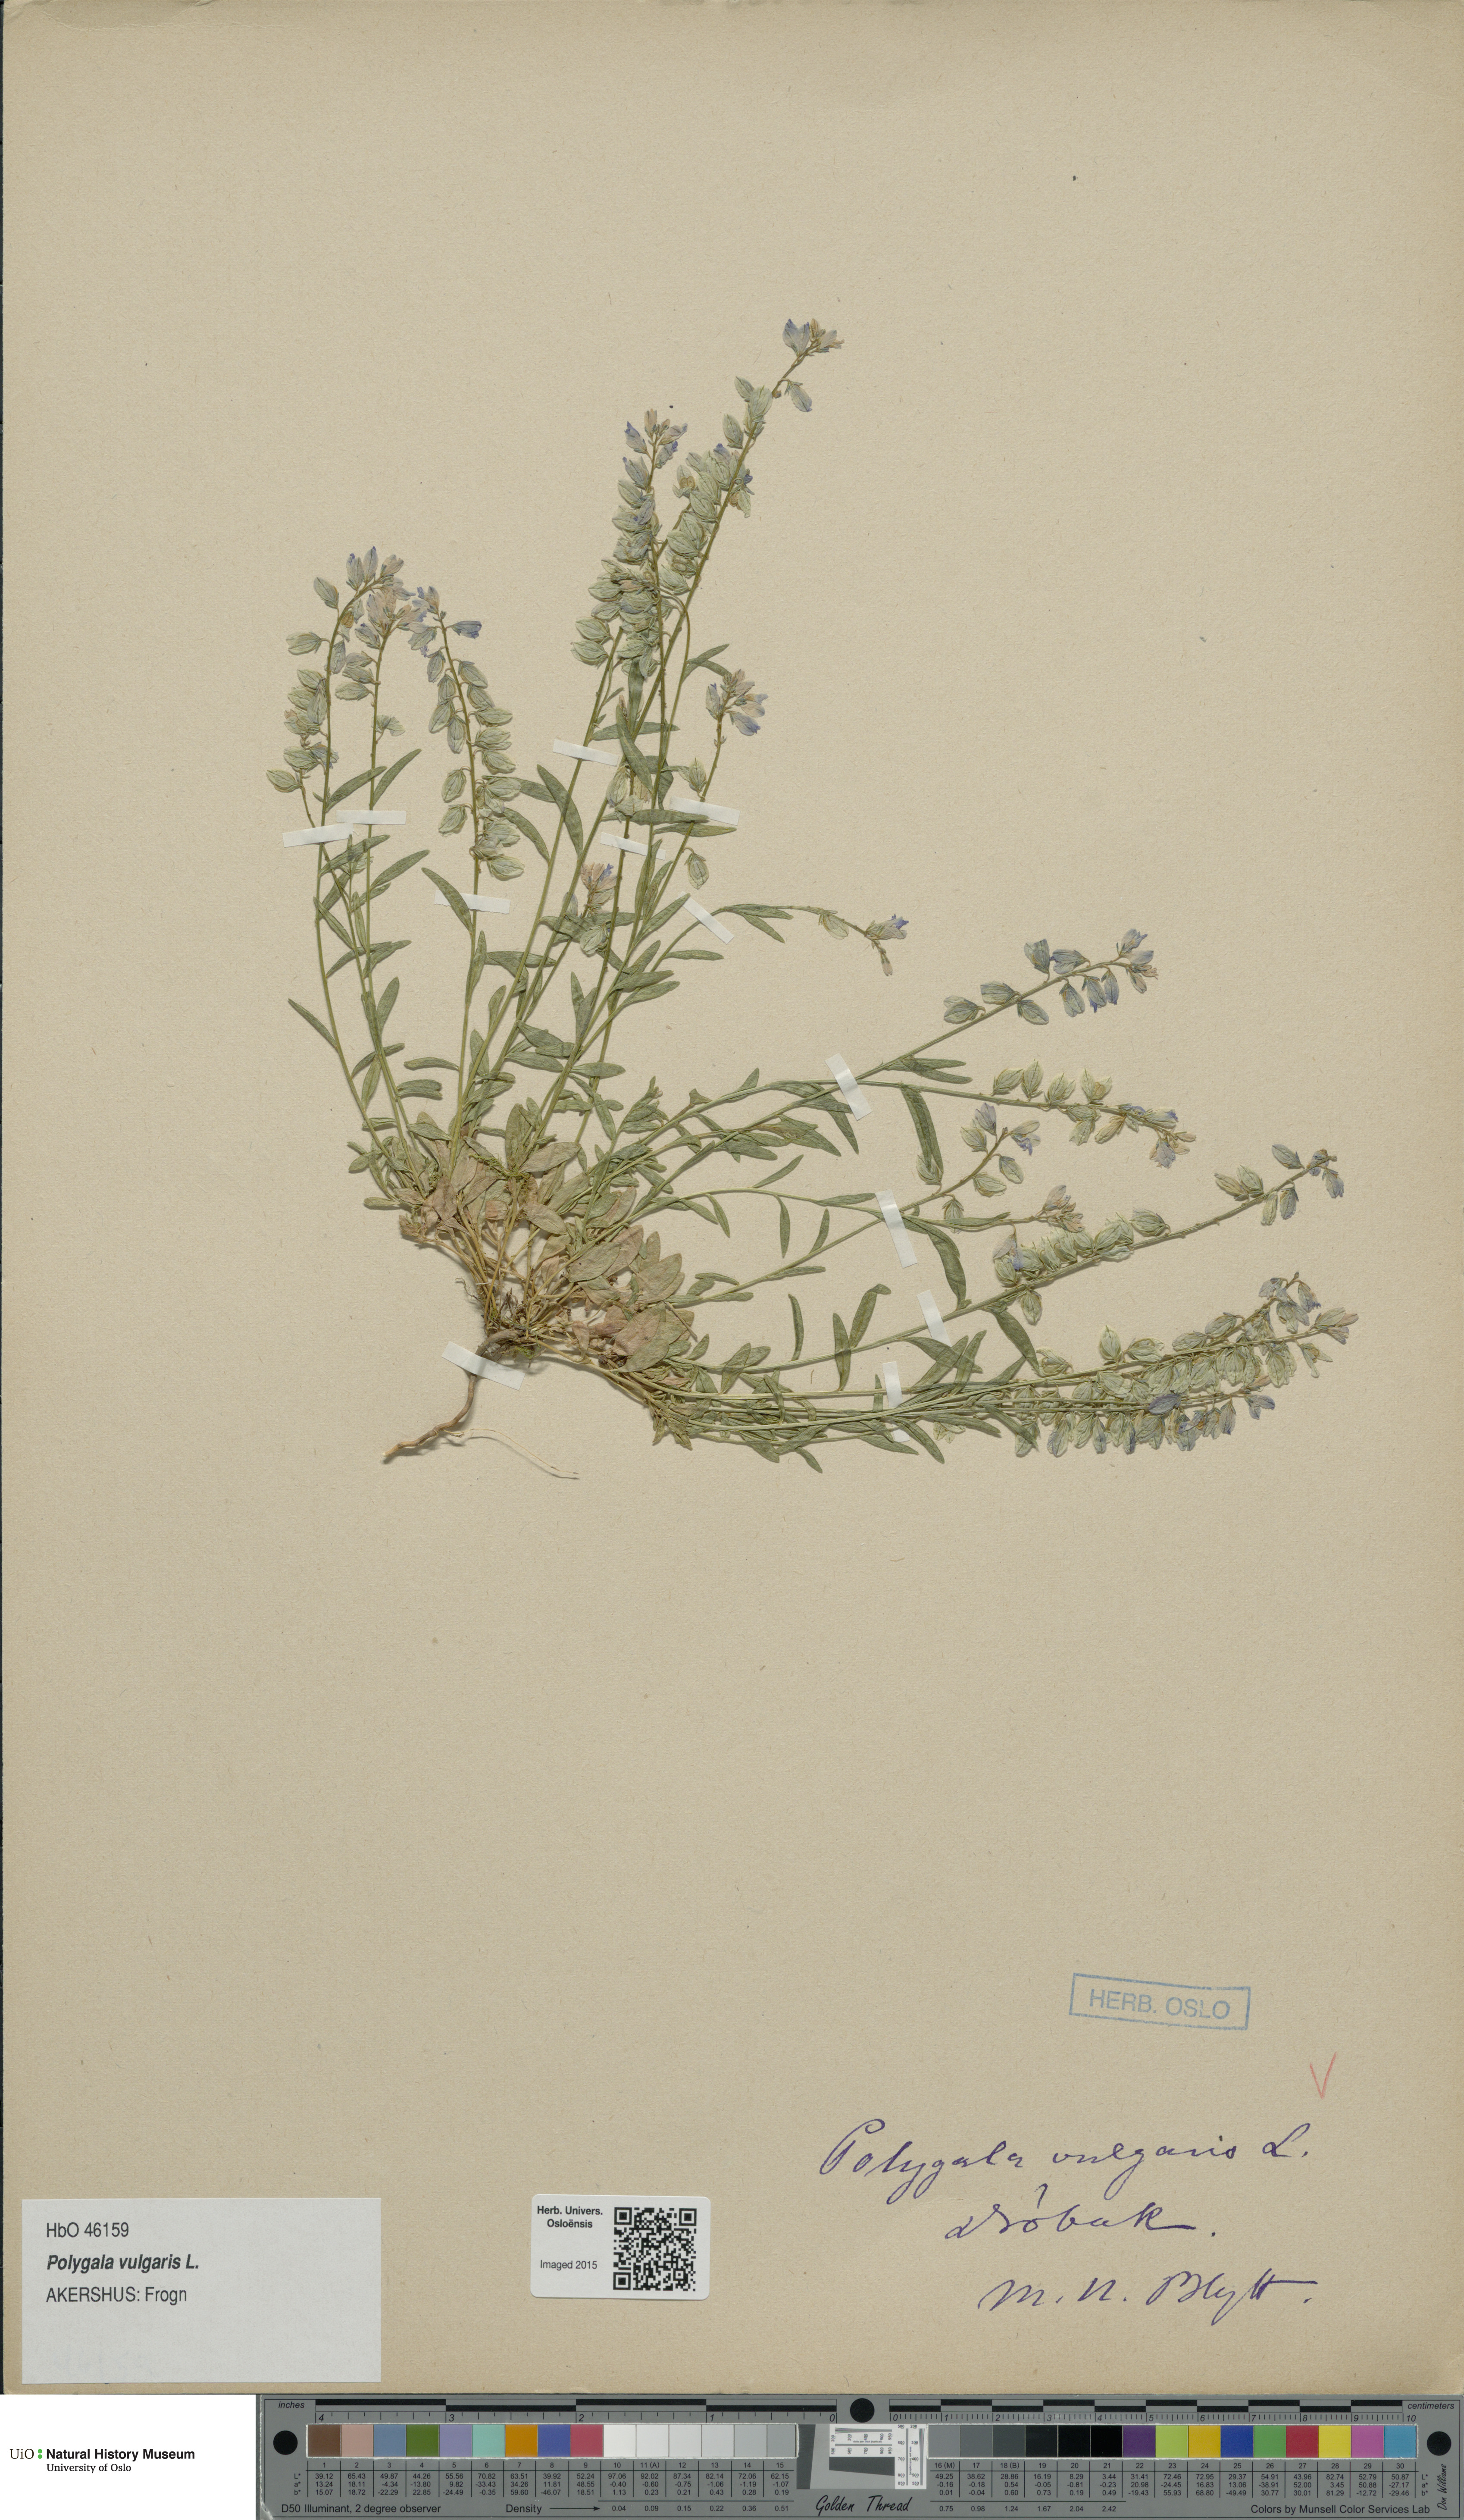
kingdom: Plantae
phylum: Tracheophyta
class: Magnoliopsida
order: Fabales
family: Polygalaceae
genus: Polygala
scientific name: Polygala vulgaris
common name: Common milkwort
